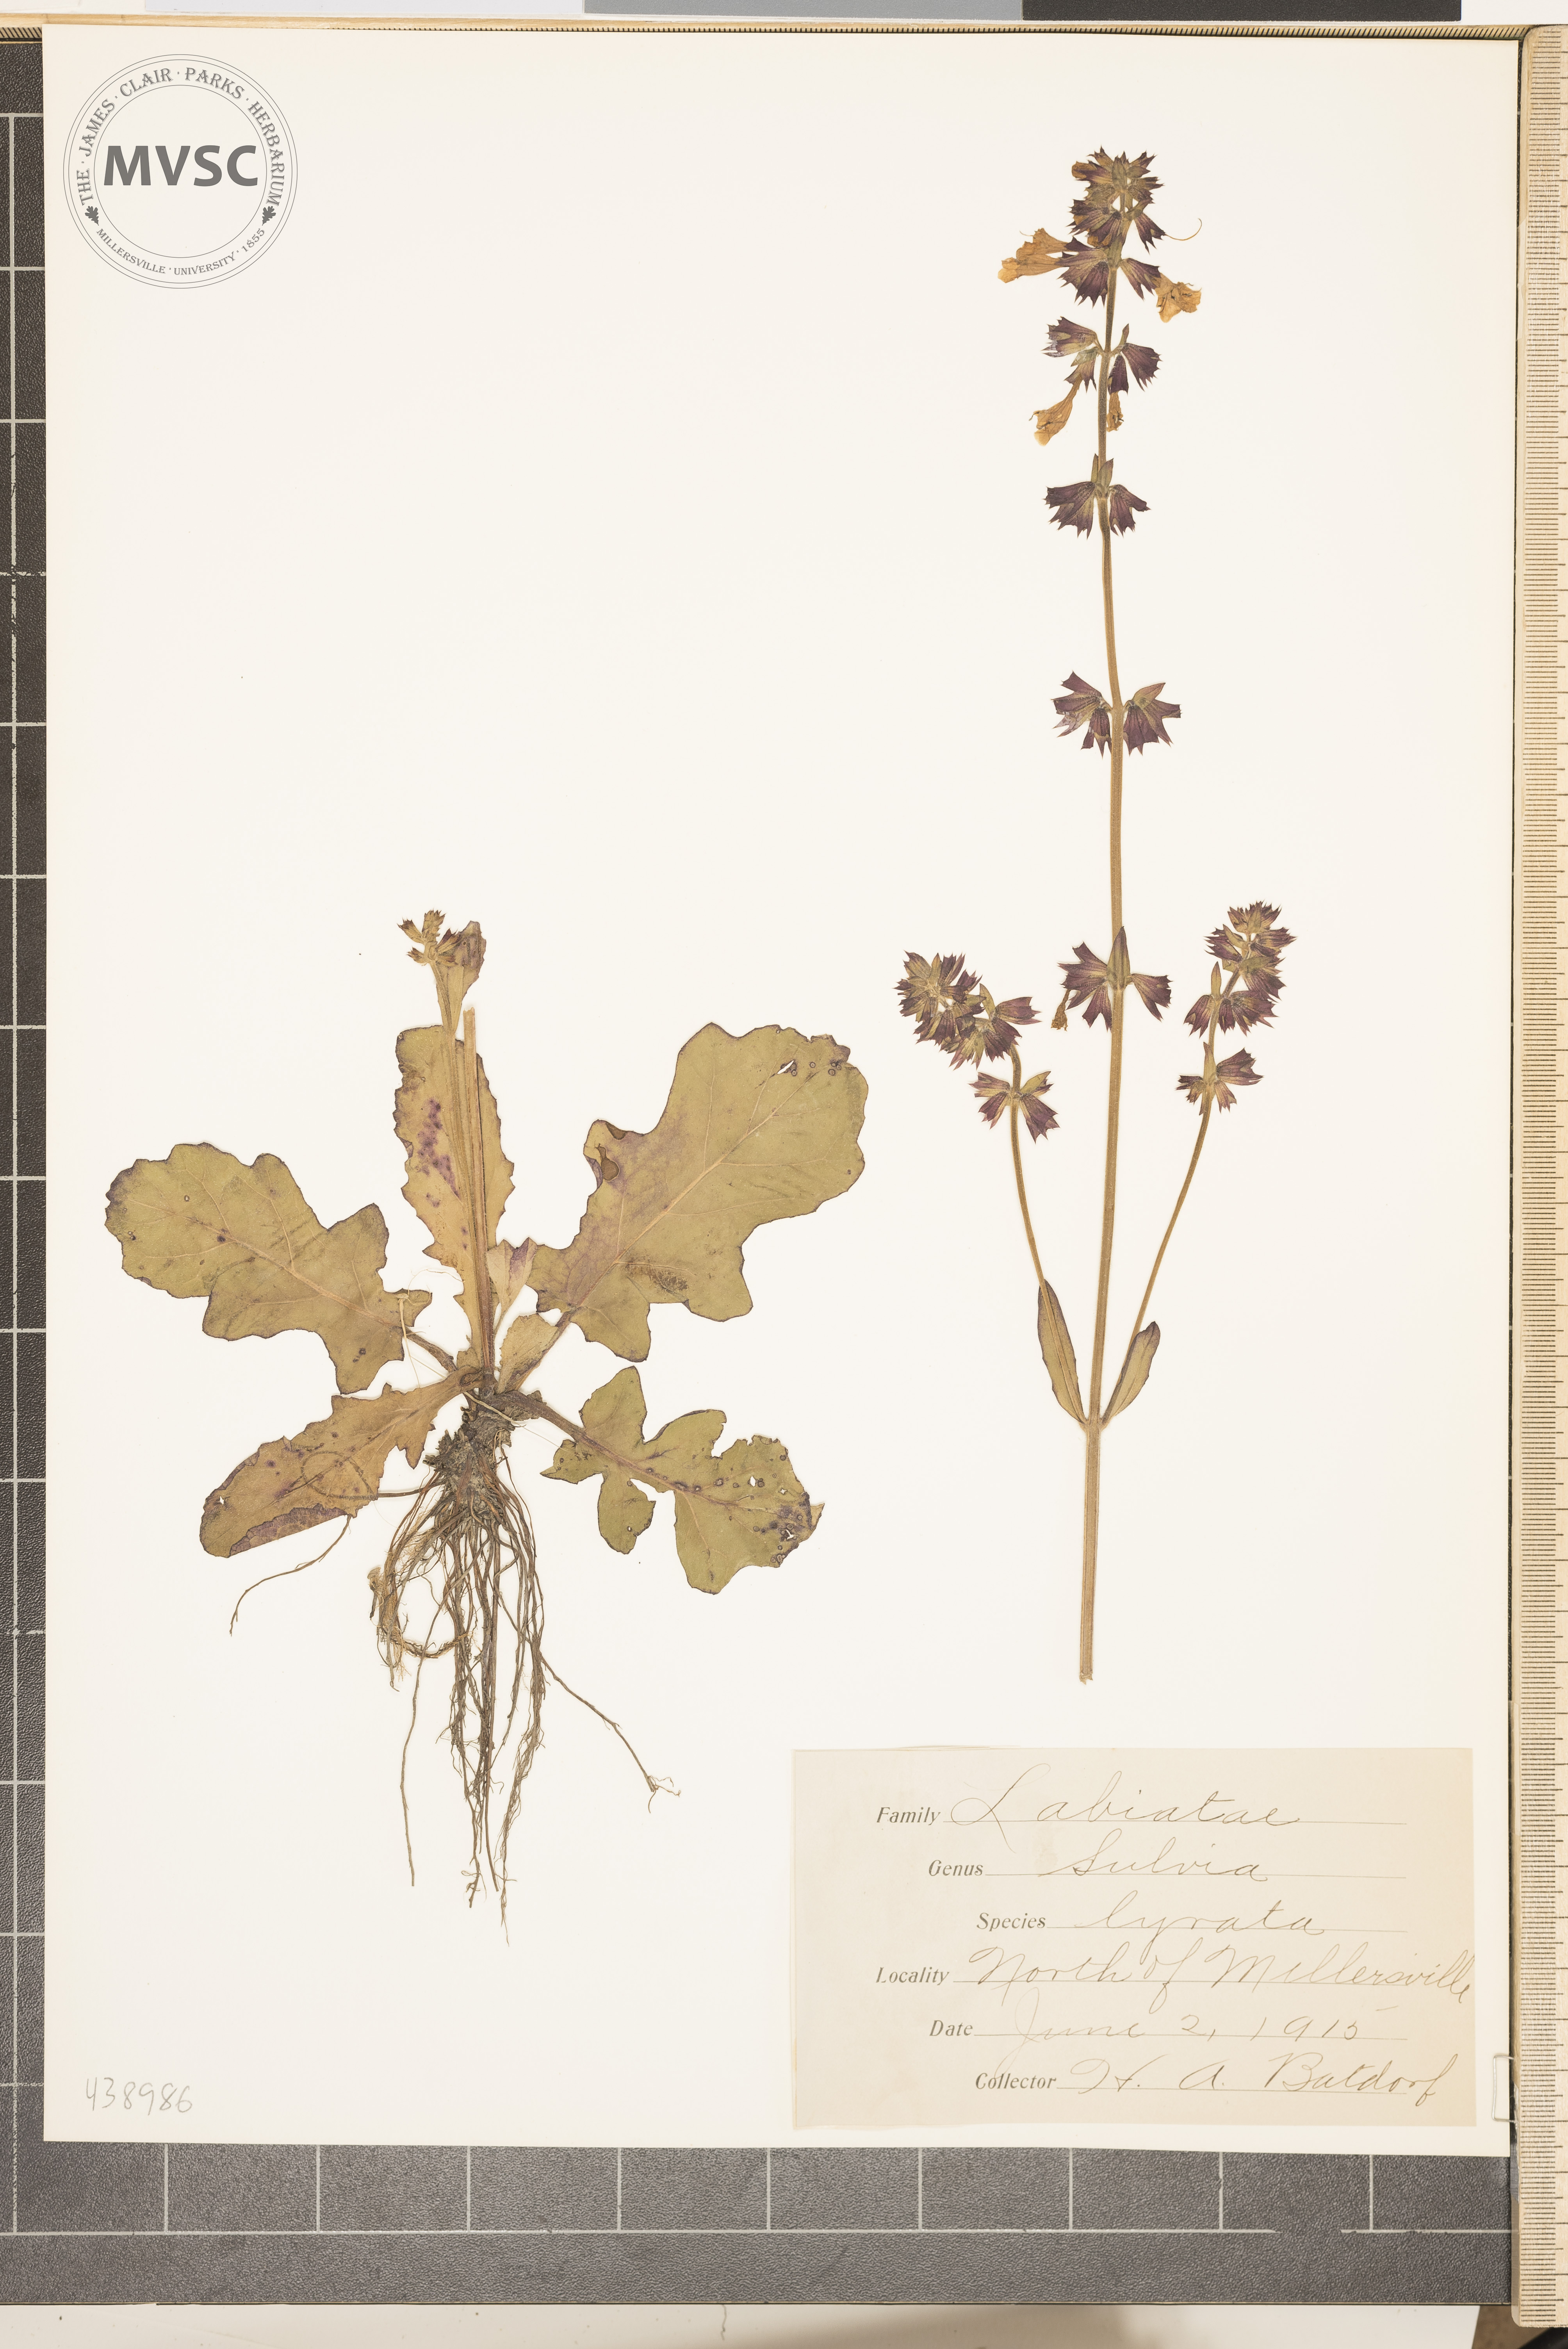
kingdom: Plantae
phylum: Tracheophyta
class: Magnoliopsida
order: Lamiales
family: Lamiaceae
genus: Salvia
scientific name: Salvia lyrata
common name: Cancerweed
